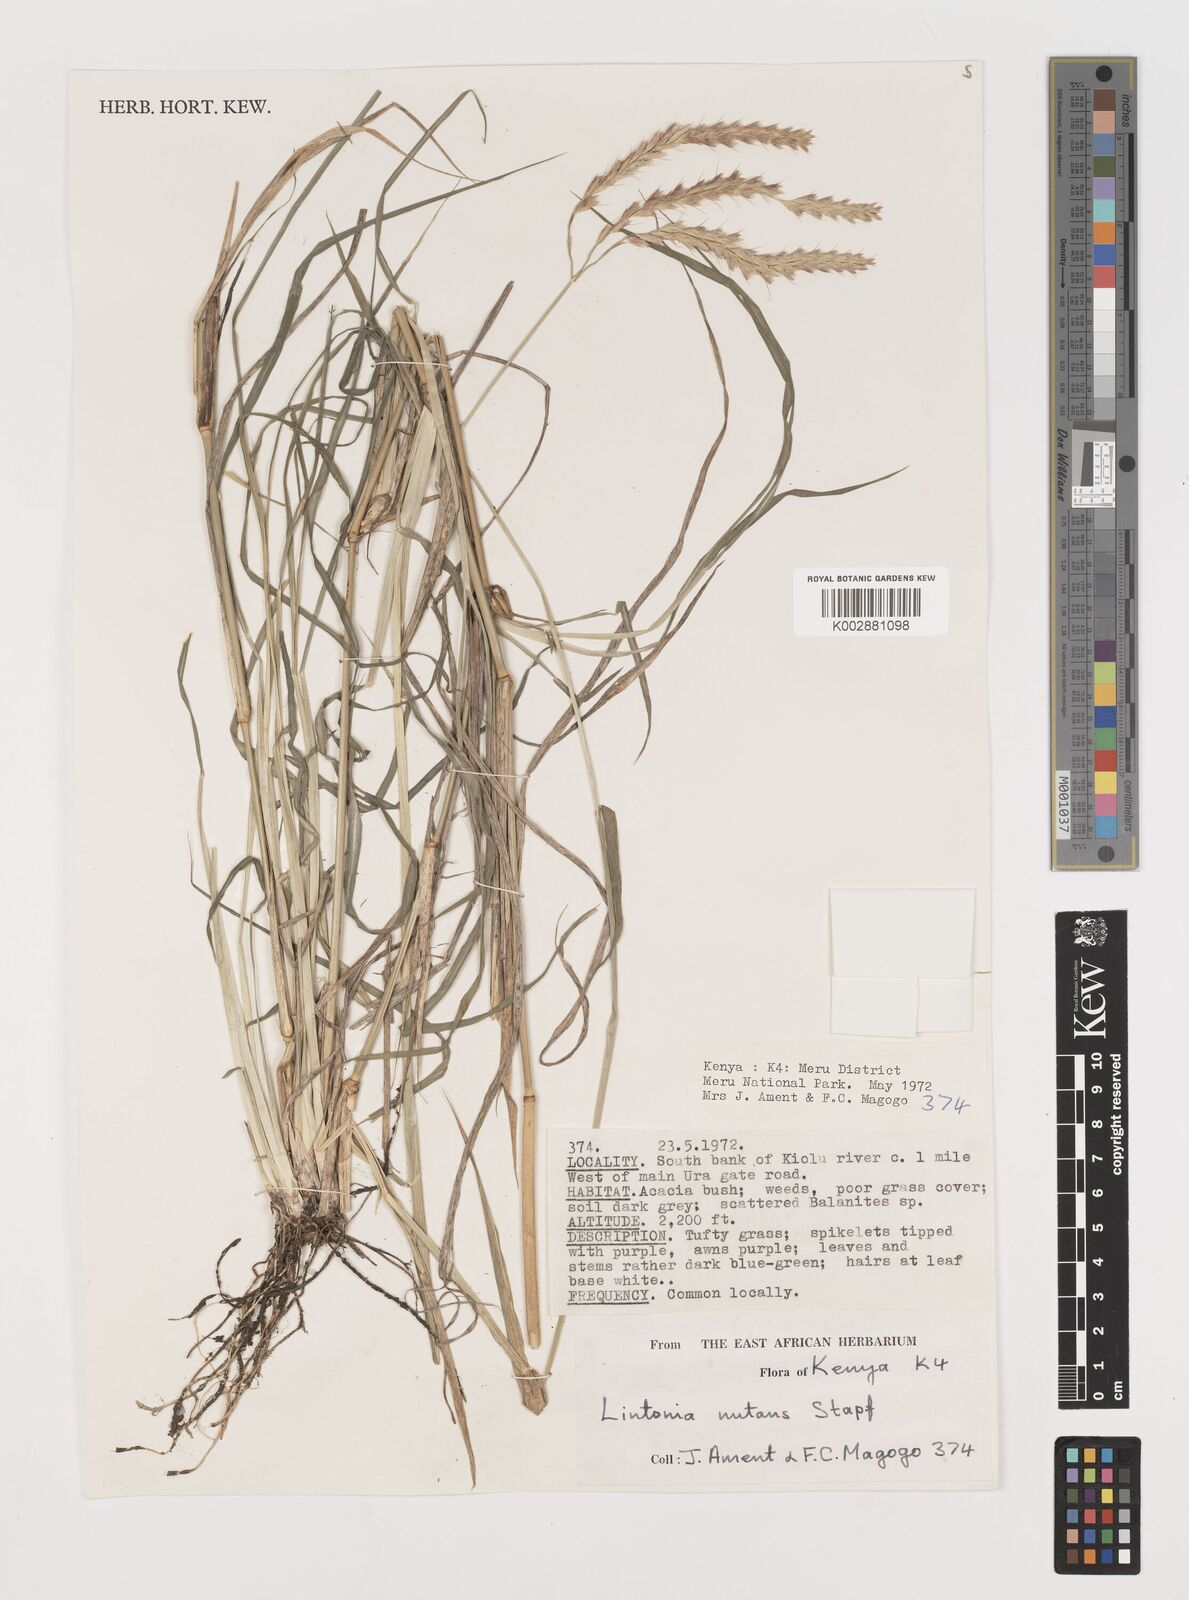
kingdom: Plantae
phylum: Tracheophyta
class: Liliopsida
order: Poales
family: Poaceae
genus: Chloris
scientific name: Chloris nutans
